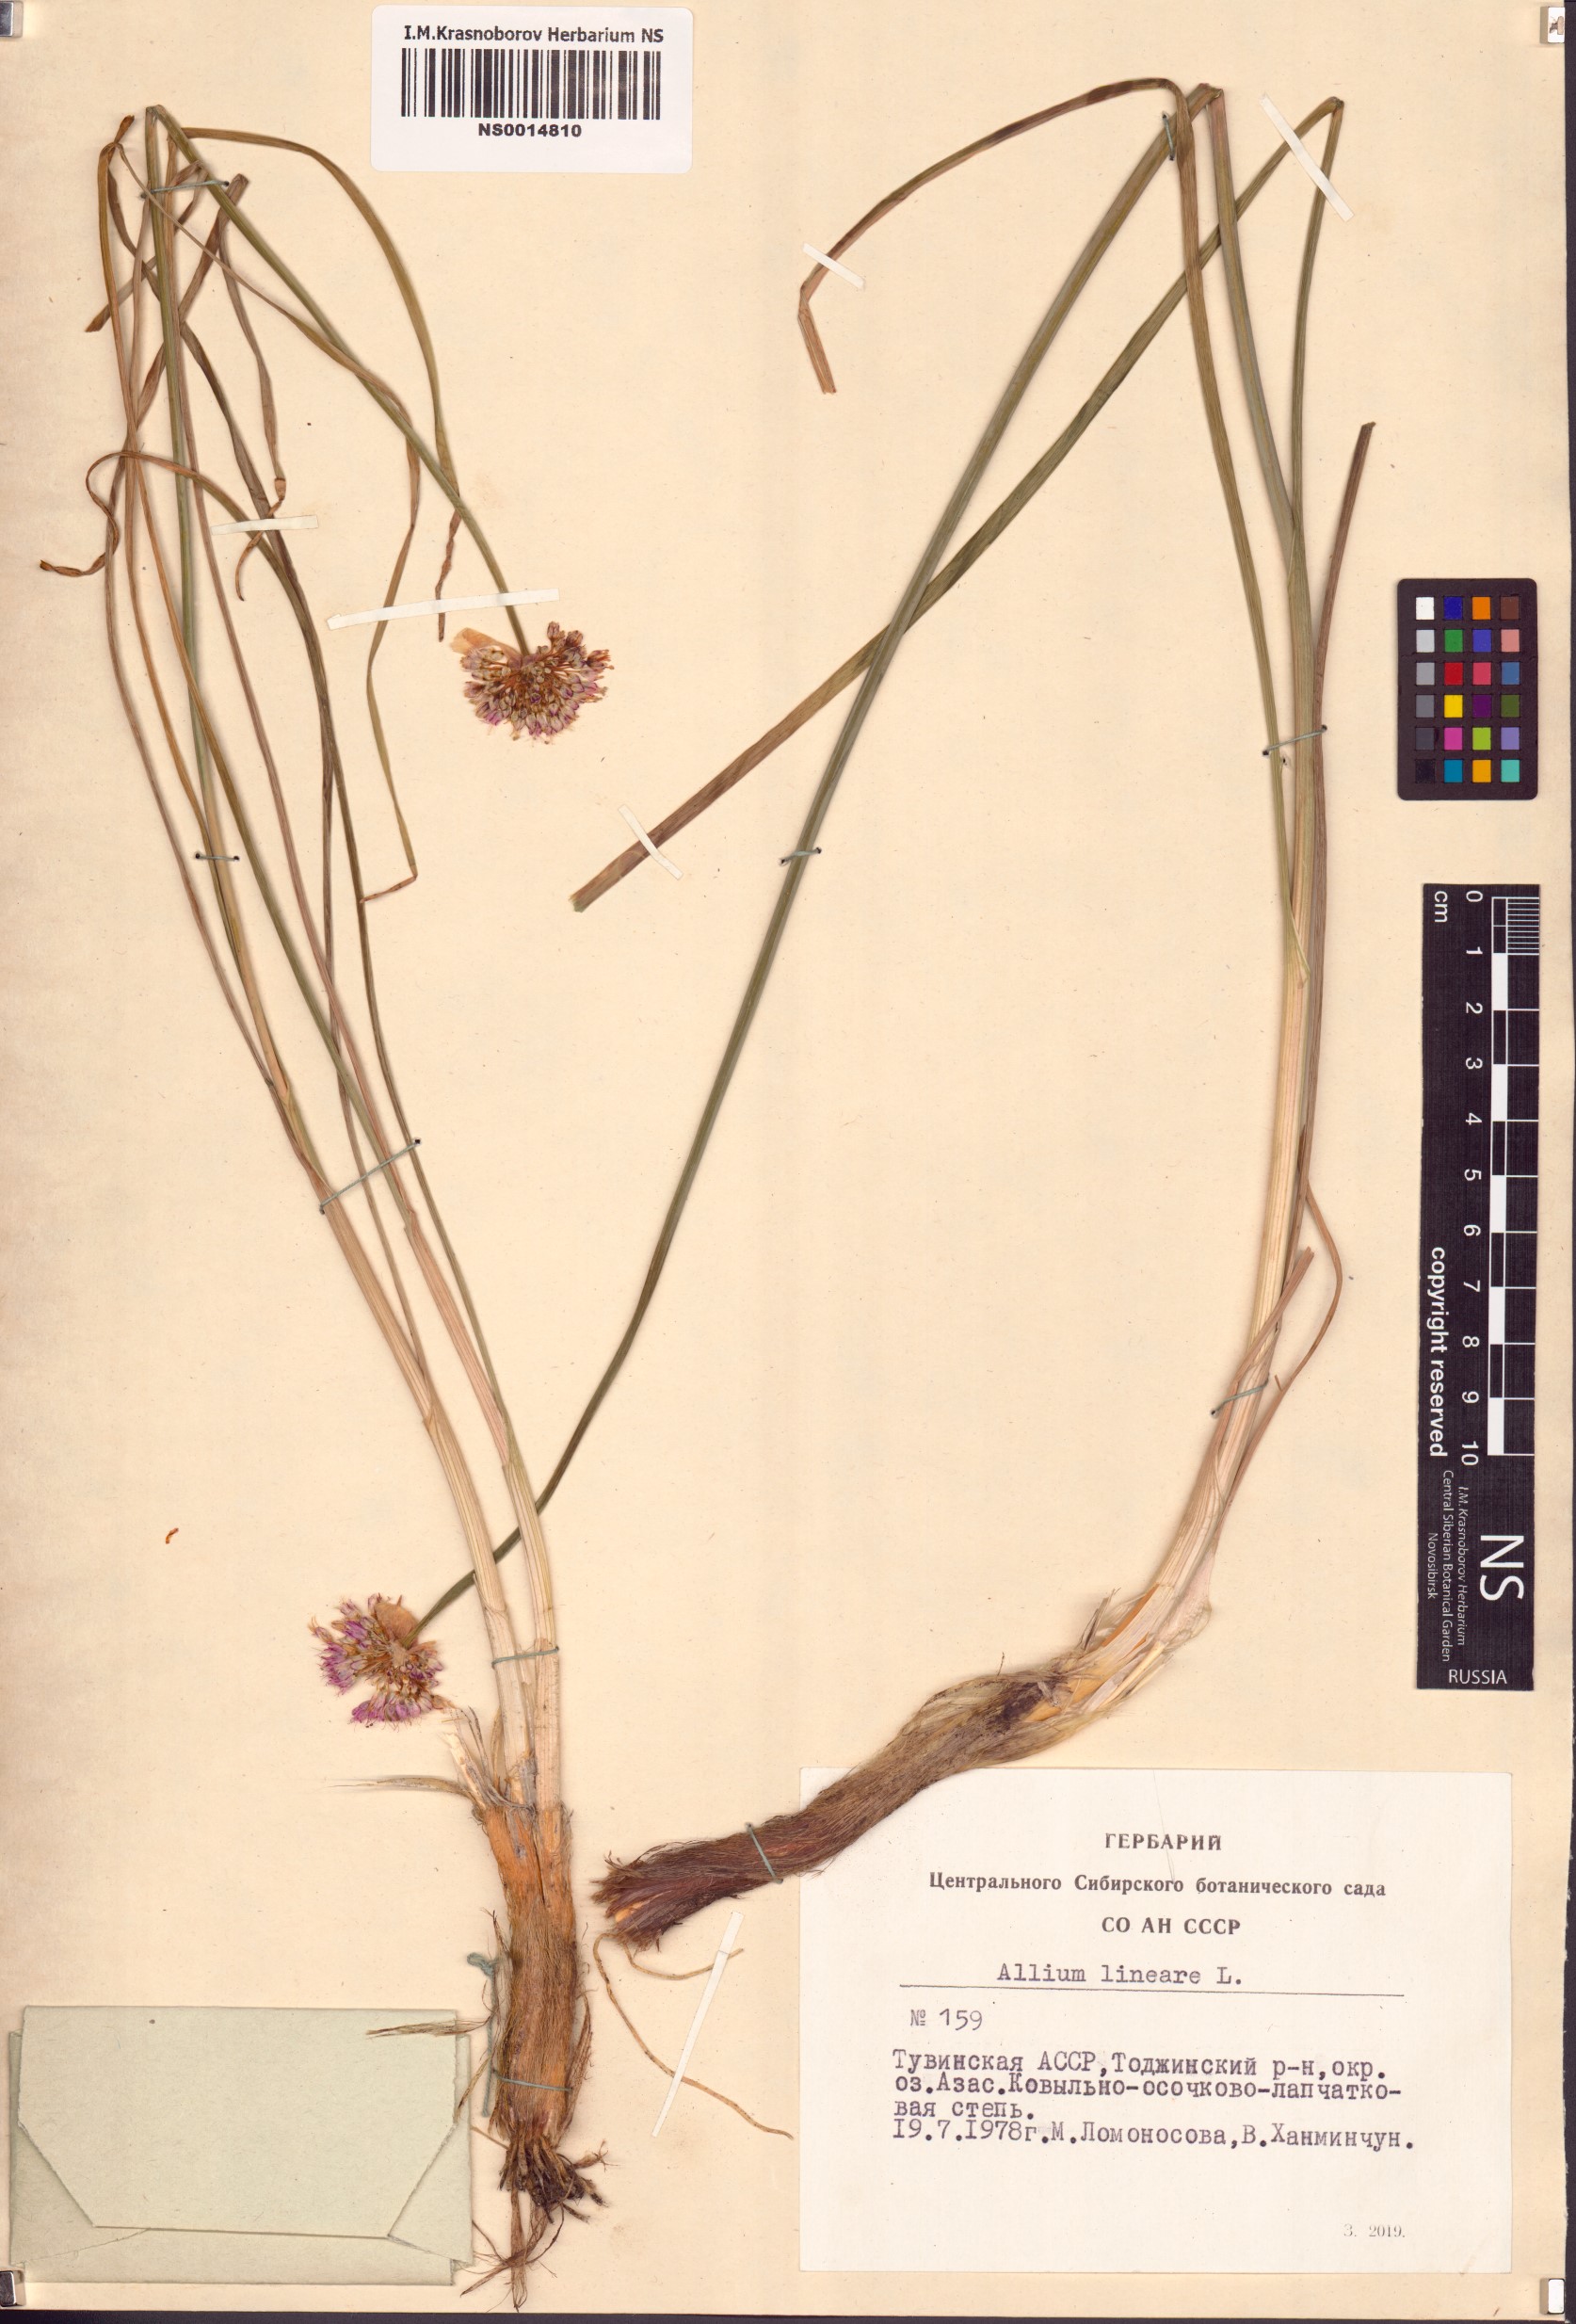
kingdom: Plantae
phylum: Tracheophyta
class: Liliopsida
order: Asparagales
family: Amaryllidaceae
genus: Allium
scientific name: Allium lineare
